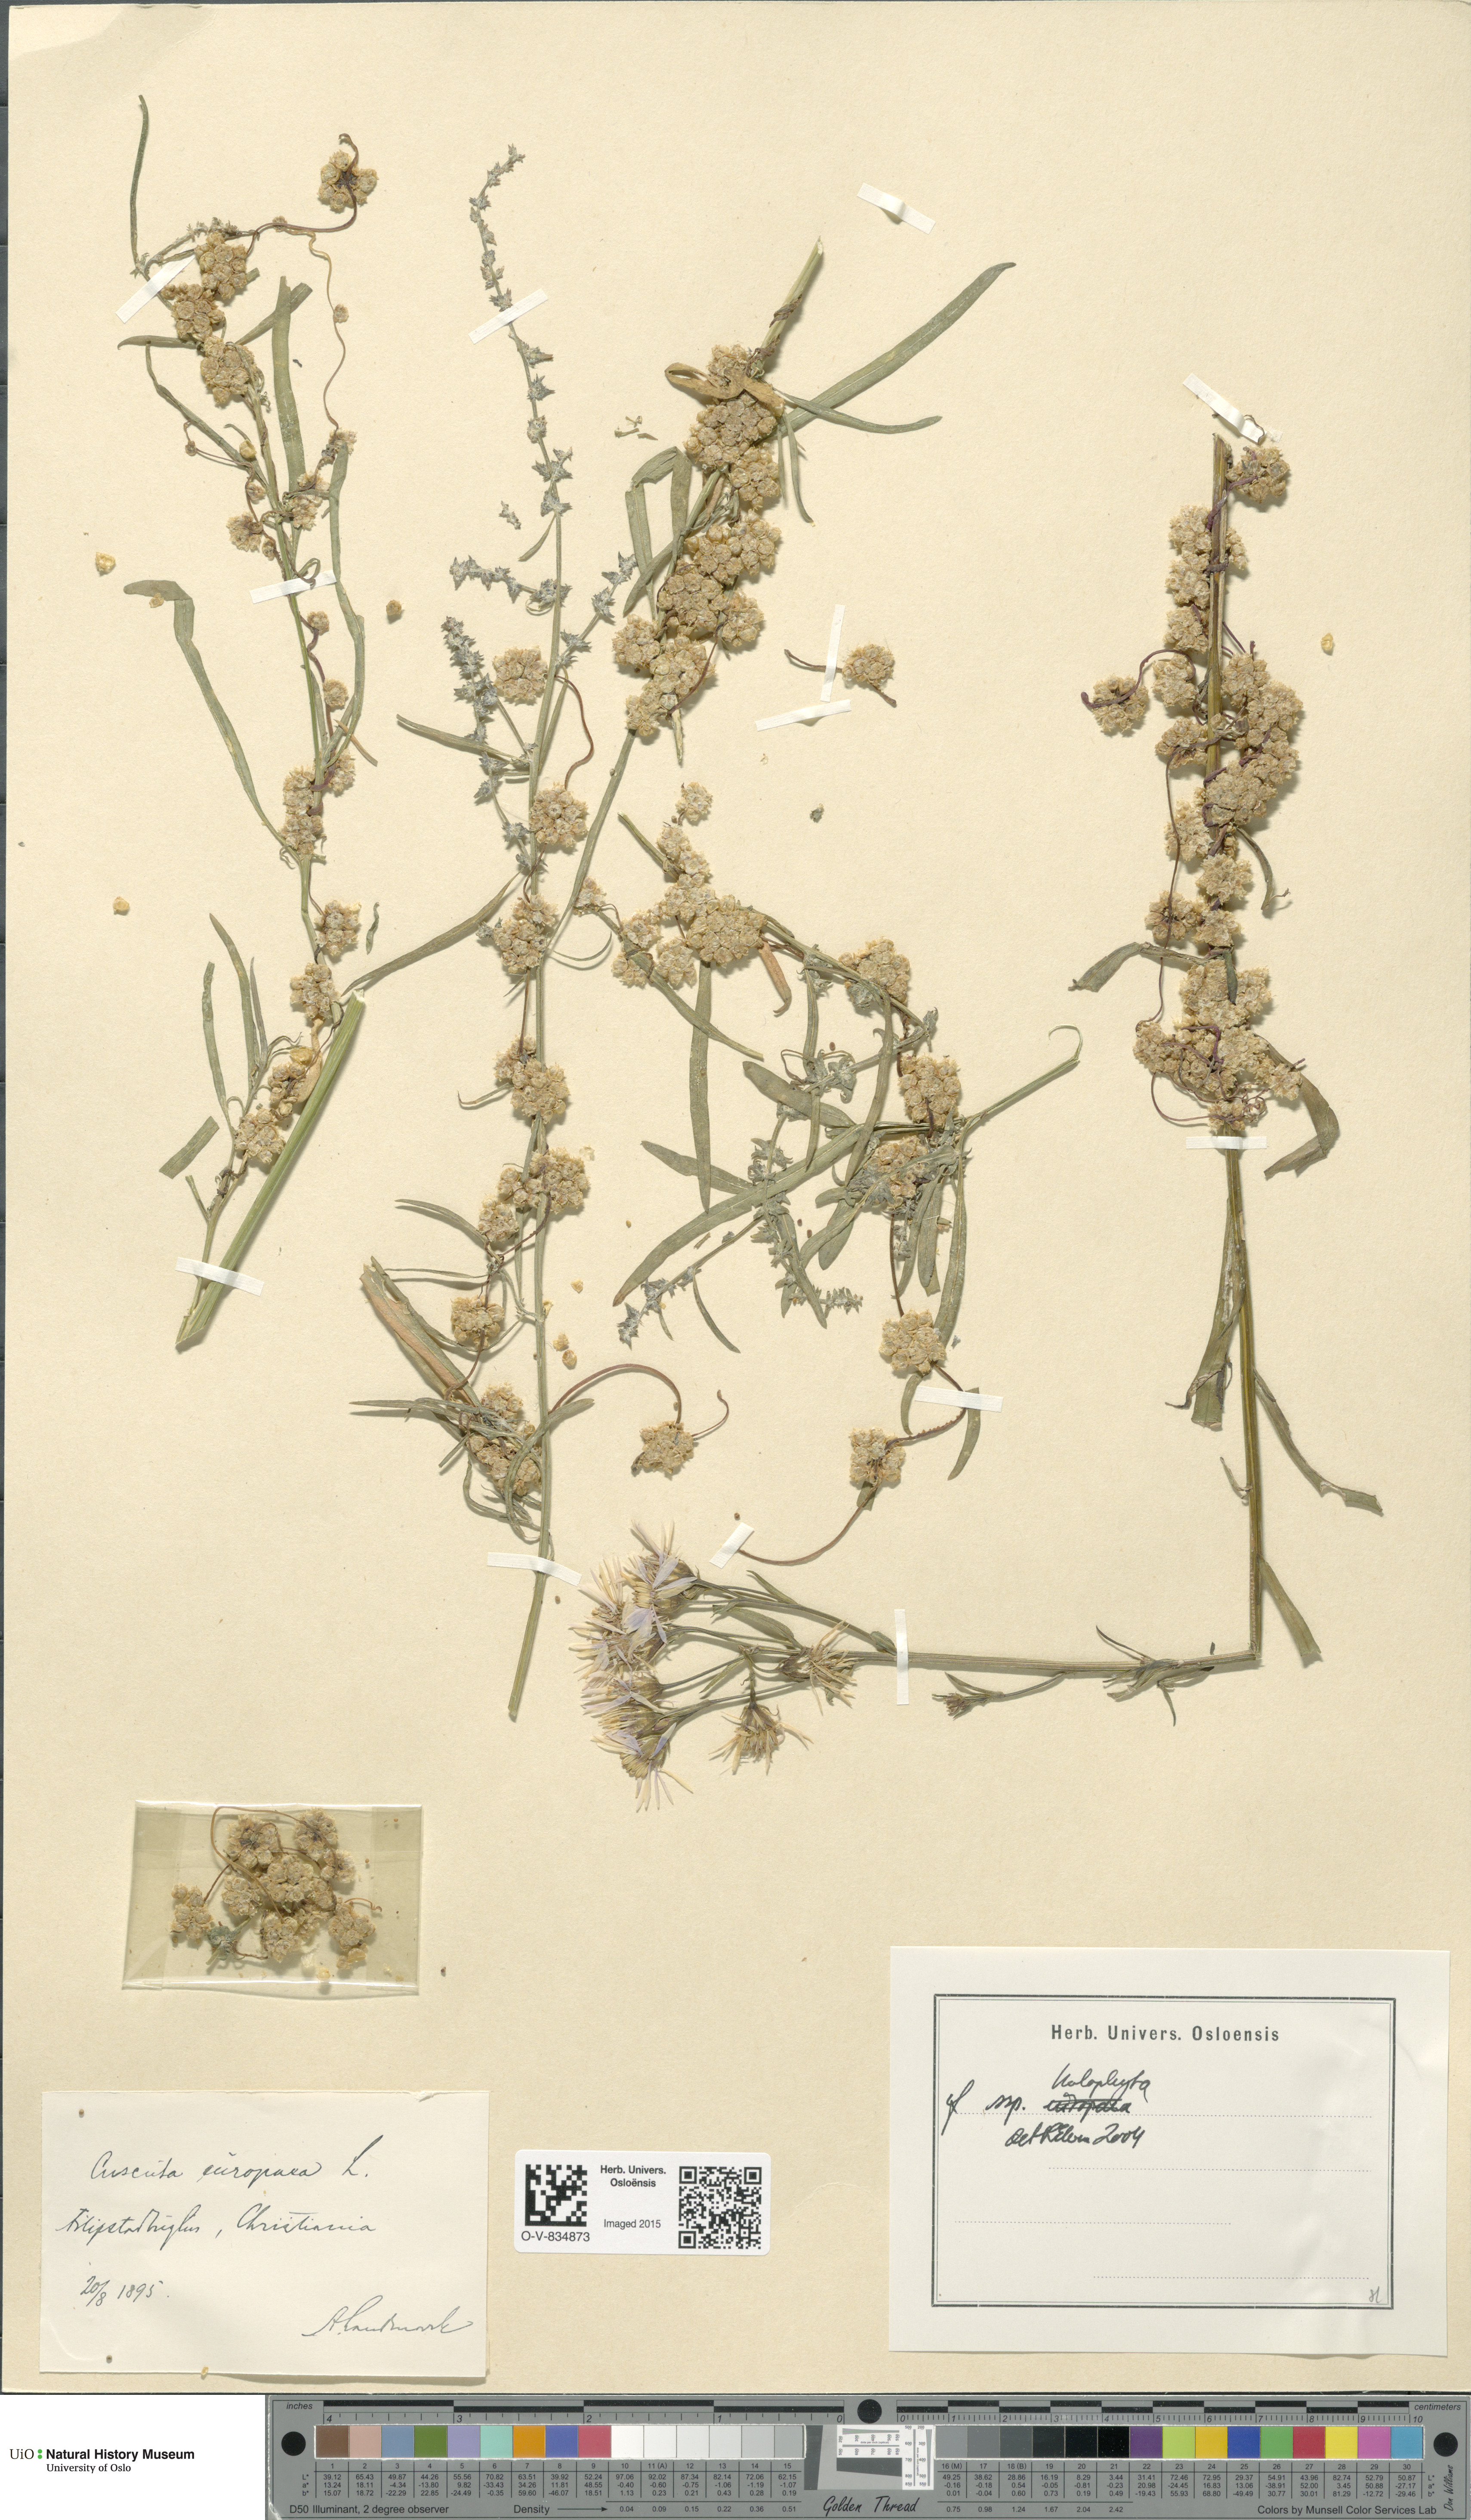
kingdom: Plantae
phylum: Tracheophyta
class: Magnoliopsida
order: Solanales
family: Convolvulaceae
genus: Cuscuta
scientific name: Cuscuta europaea
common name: Greater dodder
